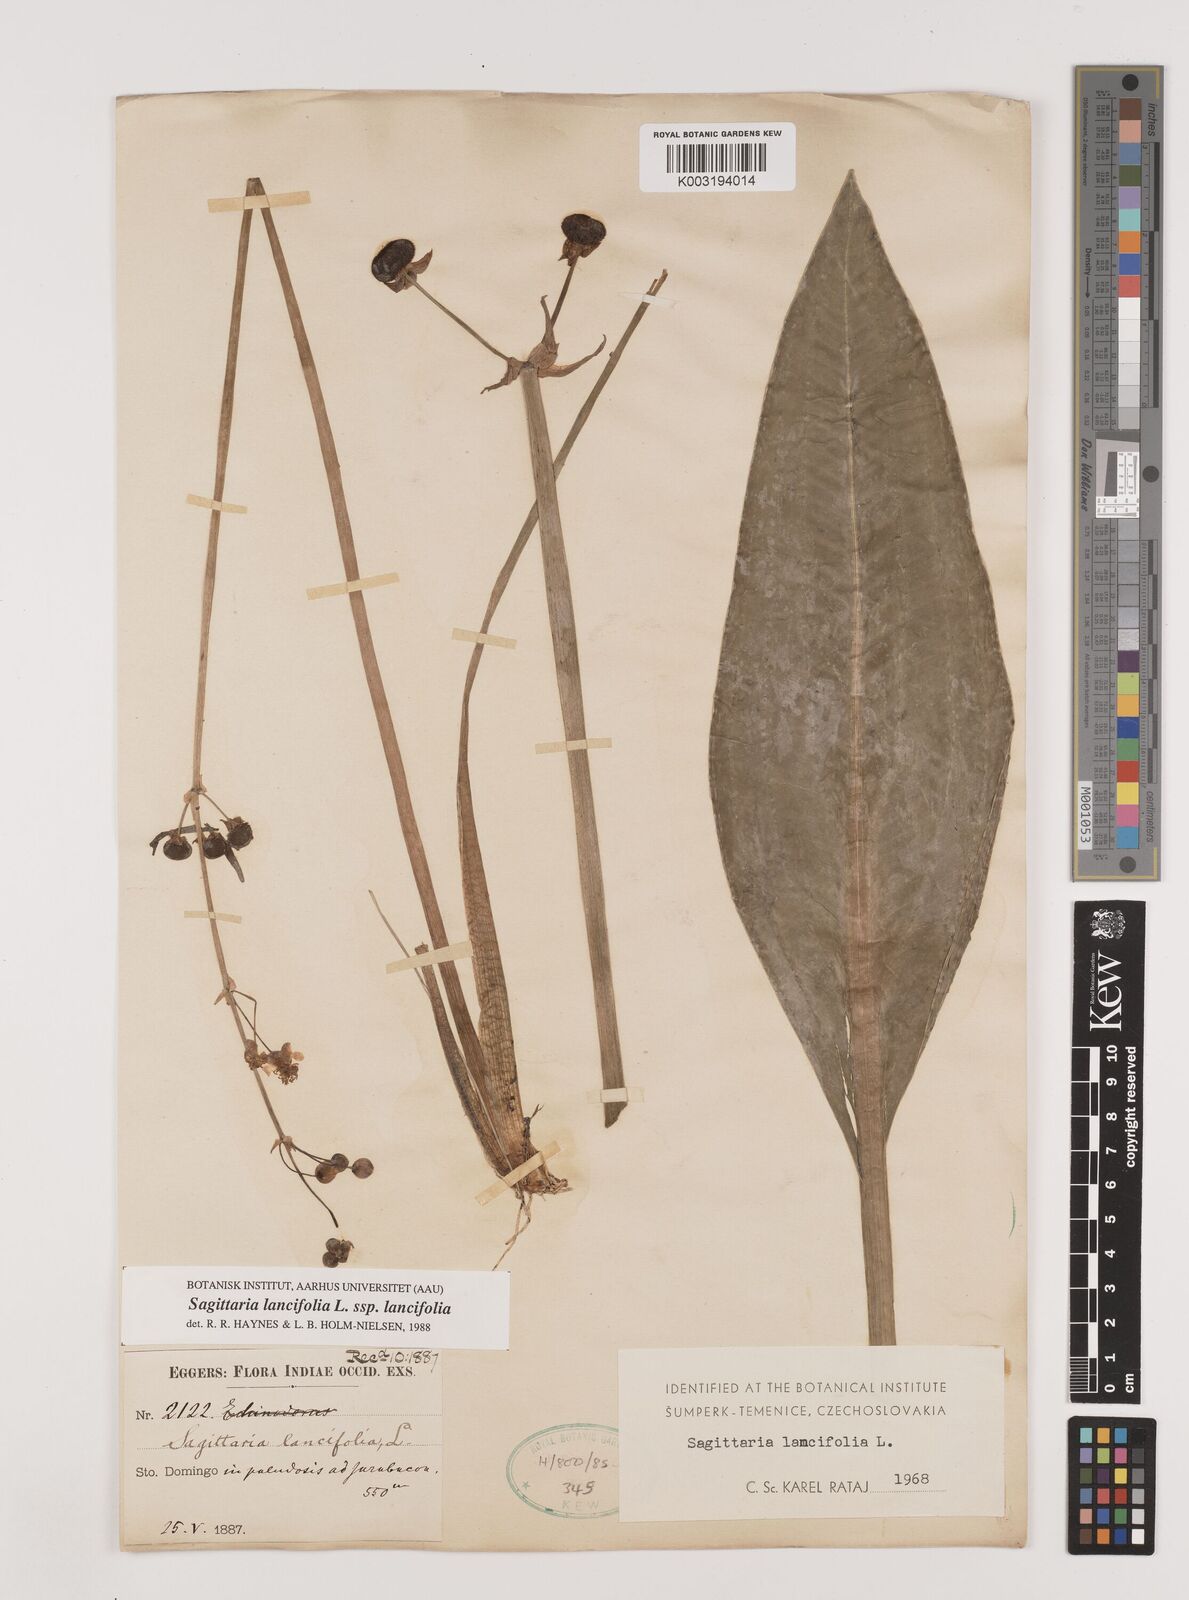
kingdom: Plantae
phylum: Tracheophyta
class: Liliopsida
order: Alismatales
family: Alismataceae
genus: Sagittaria
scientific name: Sagittaria lancifolia
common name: Lance-leaf arrowhead
